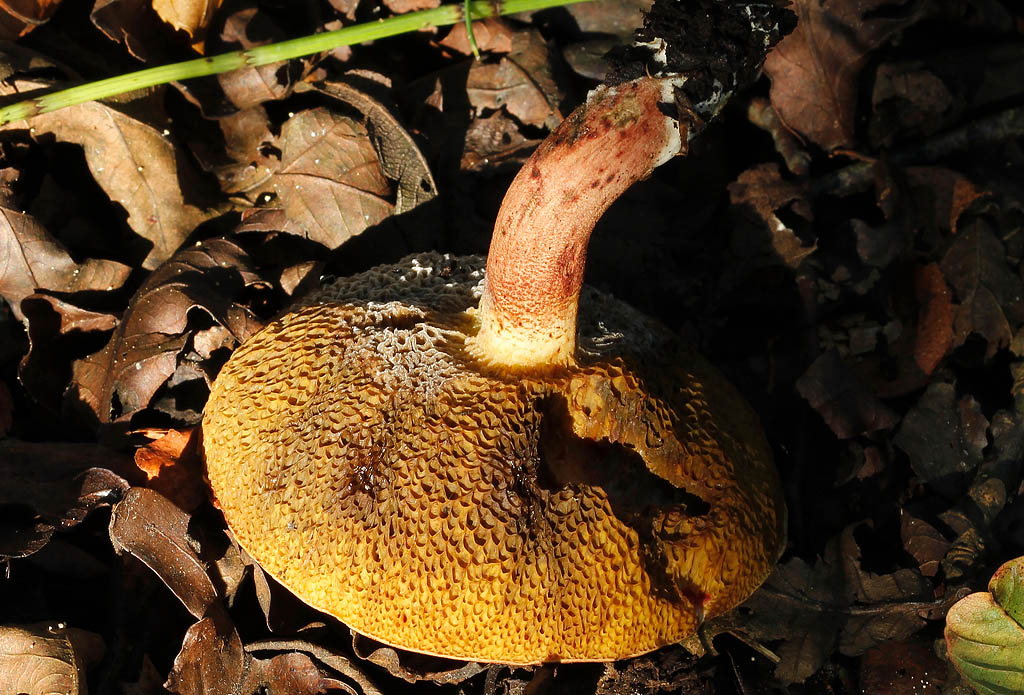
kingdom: Fungi
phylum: Basidiomycota
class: Agaricomycetes
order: Boletales
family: Boletaceae
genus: Xerocomellus
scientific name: Xerocomellus ripariellus
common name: sump-rørhat
